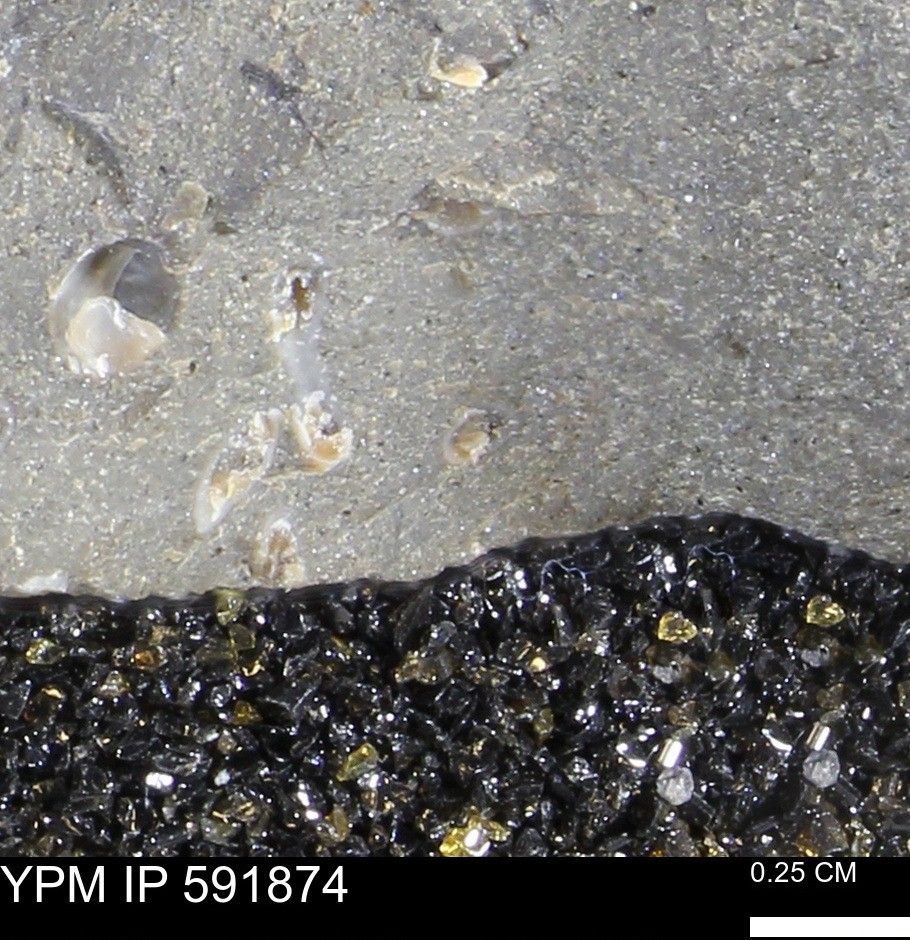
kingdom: Animalia
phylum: Annelida
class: Polychaeta
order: Sabellida
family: Serpulidae
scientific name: Serpulidae
